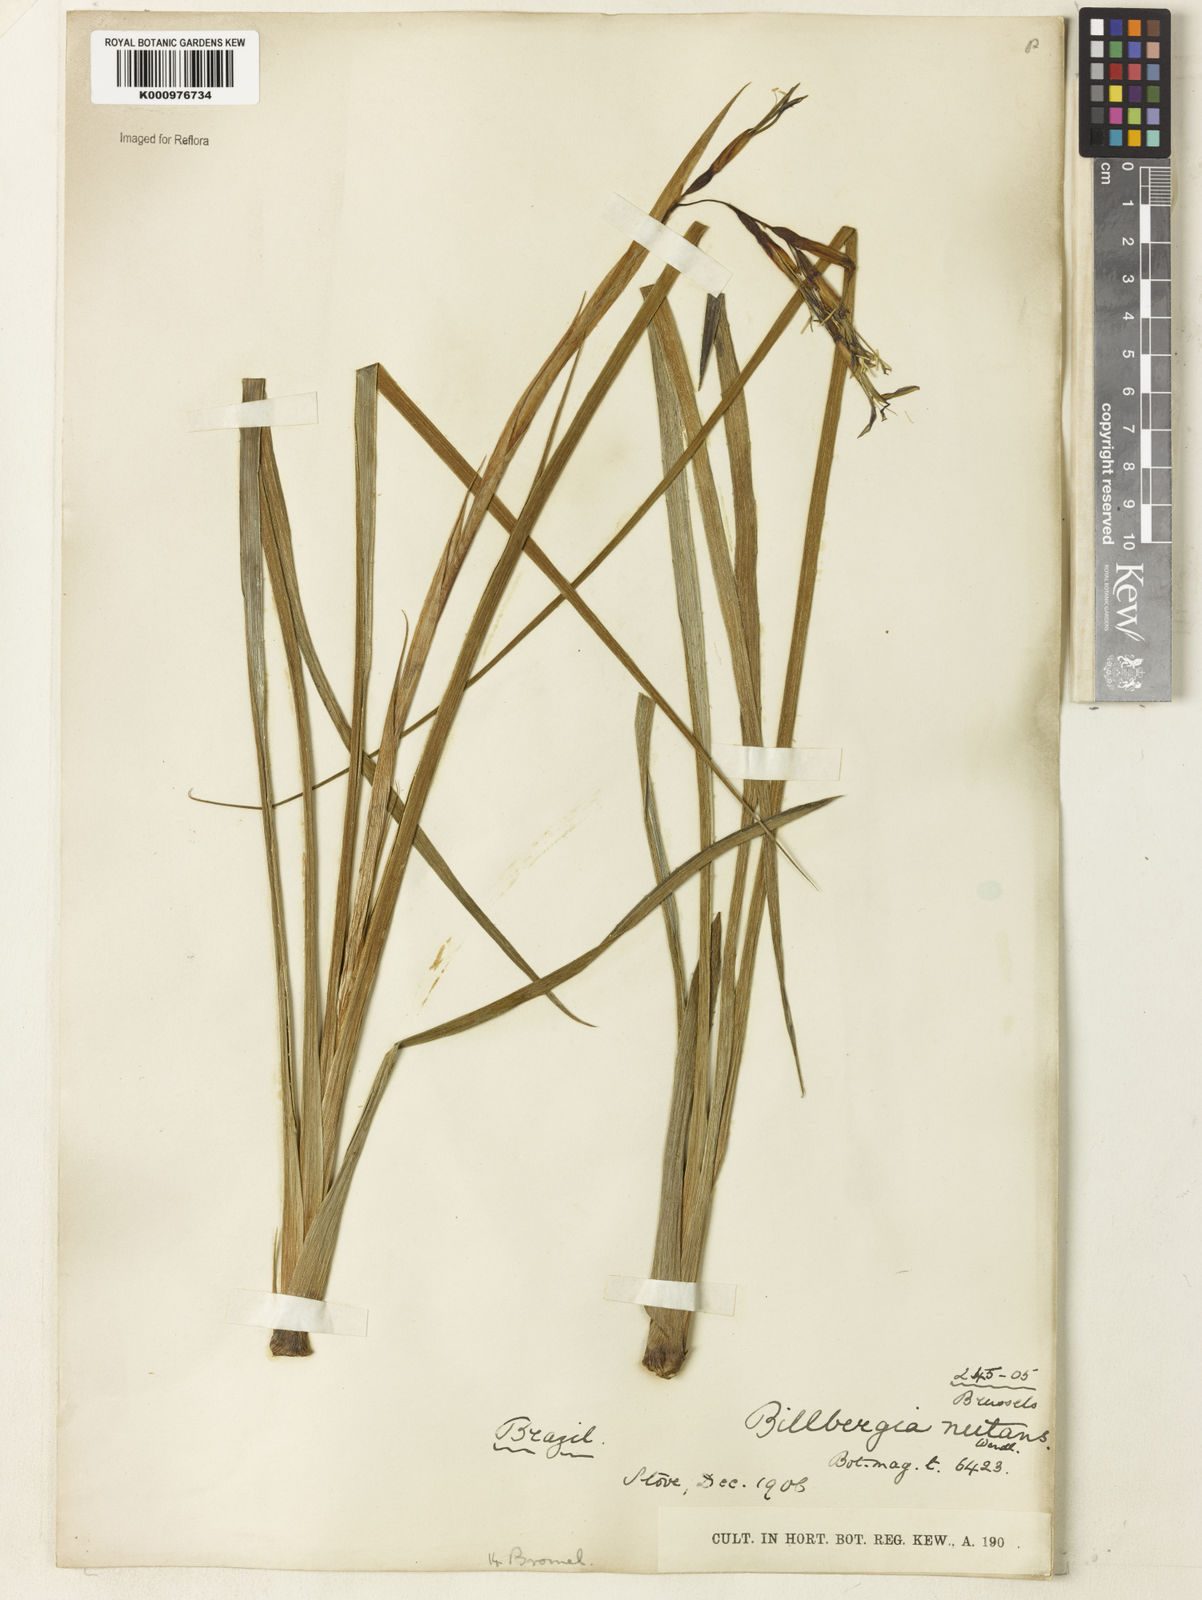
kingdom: Plantae
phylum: Tracheophyta
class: Liliopsida
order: Poales
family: Bromeliaceae
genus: Billbergia
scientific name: Billbergia nutans
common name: Friendship-plant
